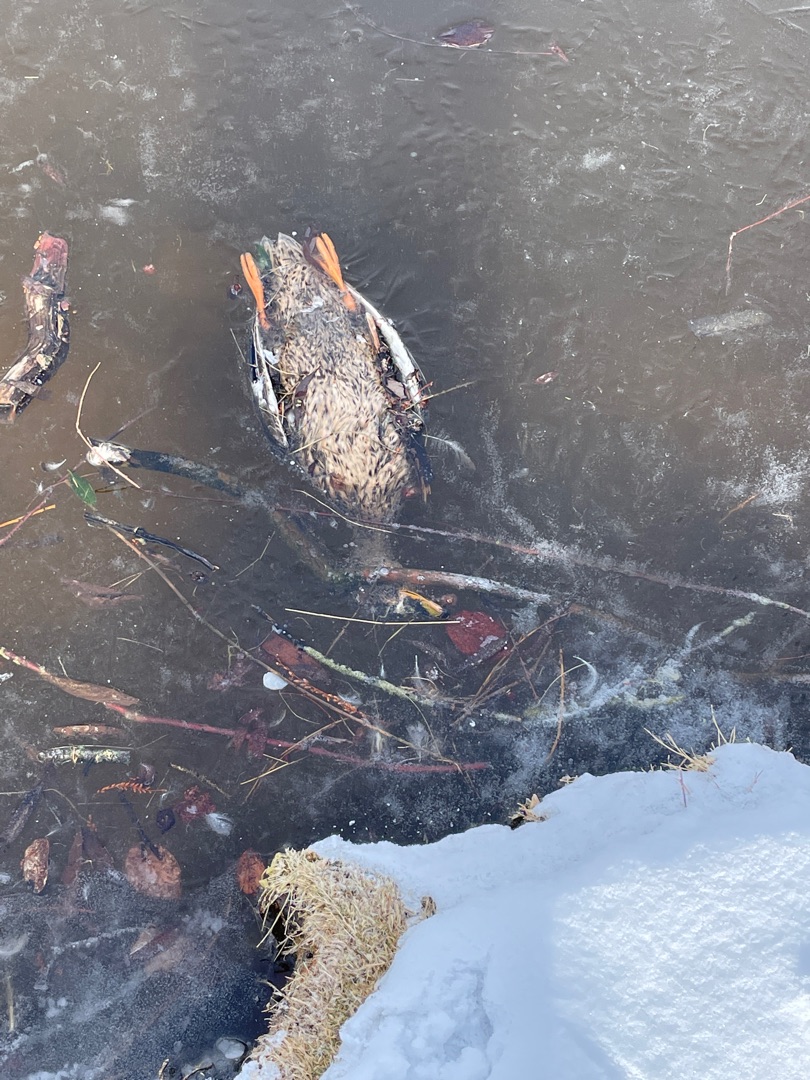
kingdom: Animalia
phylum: Chordata
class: Aves
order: Anseriformes
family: Anatidae
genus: Anas
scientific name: Anas platyrhynchos
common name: Gråand
